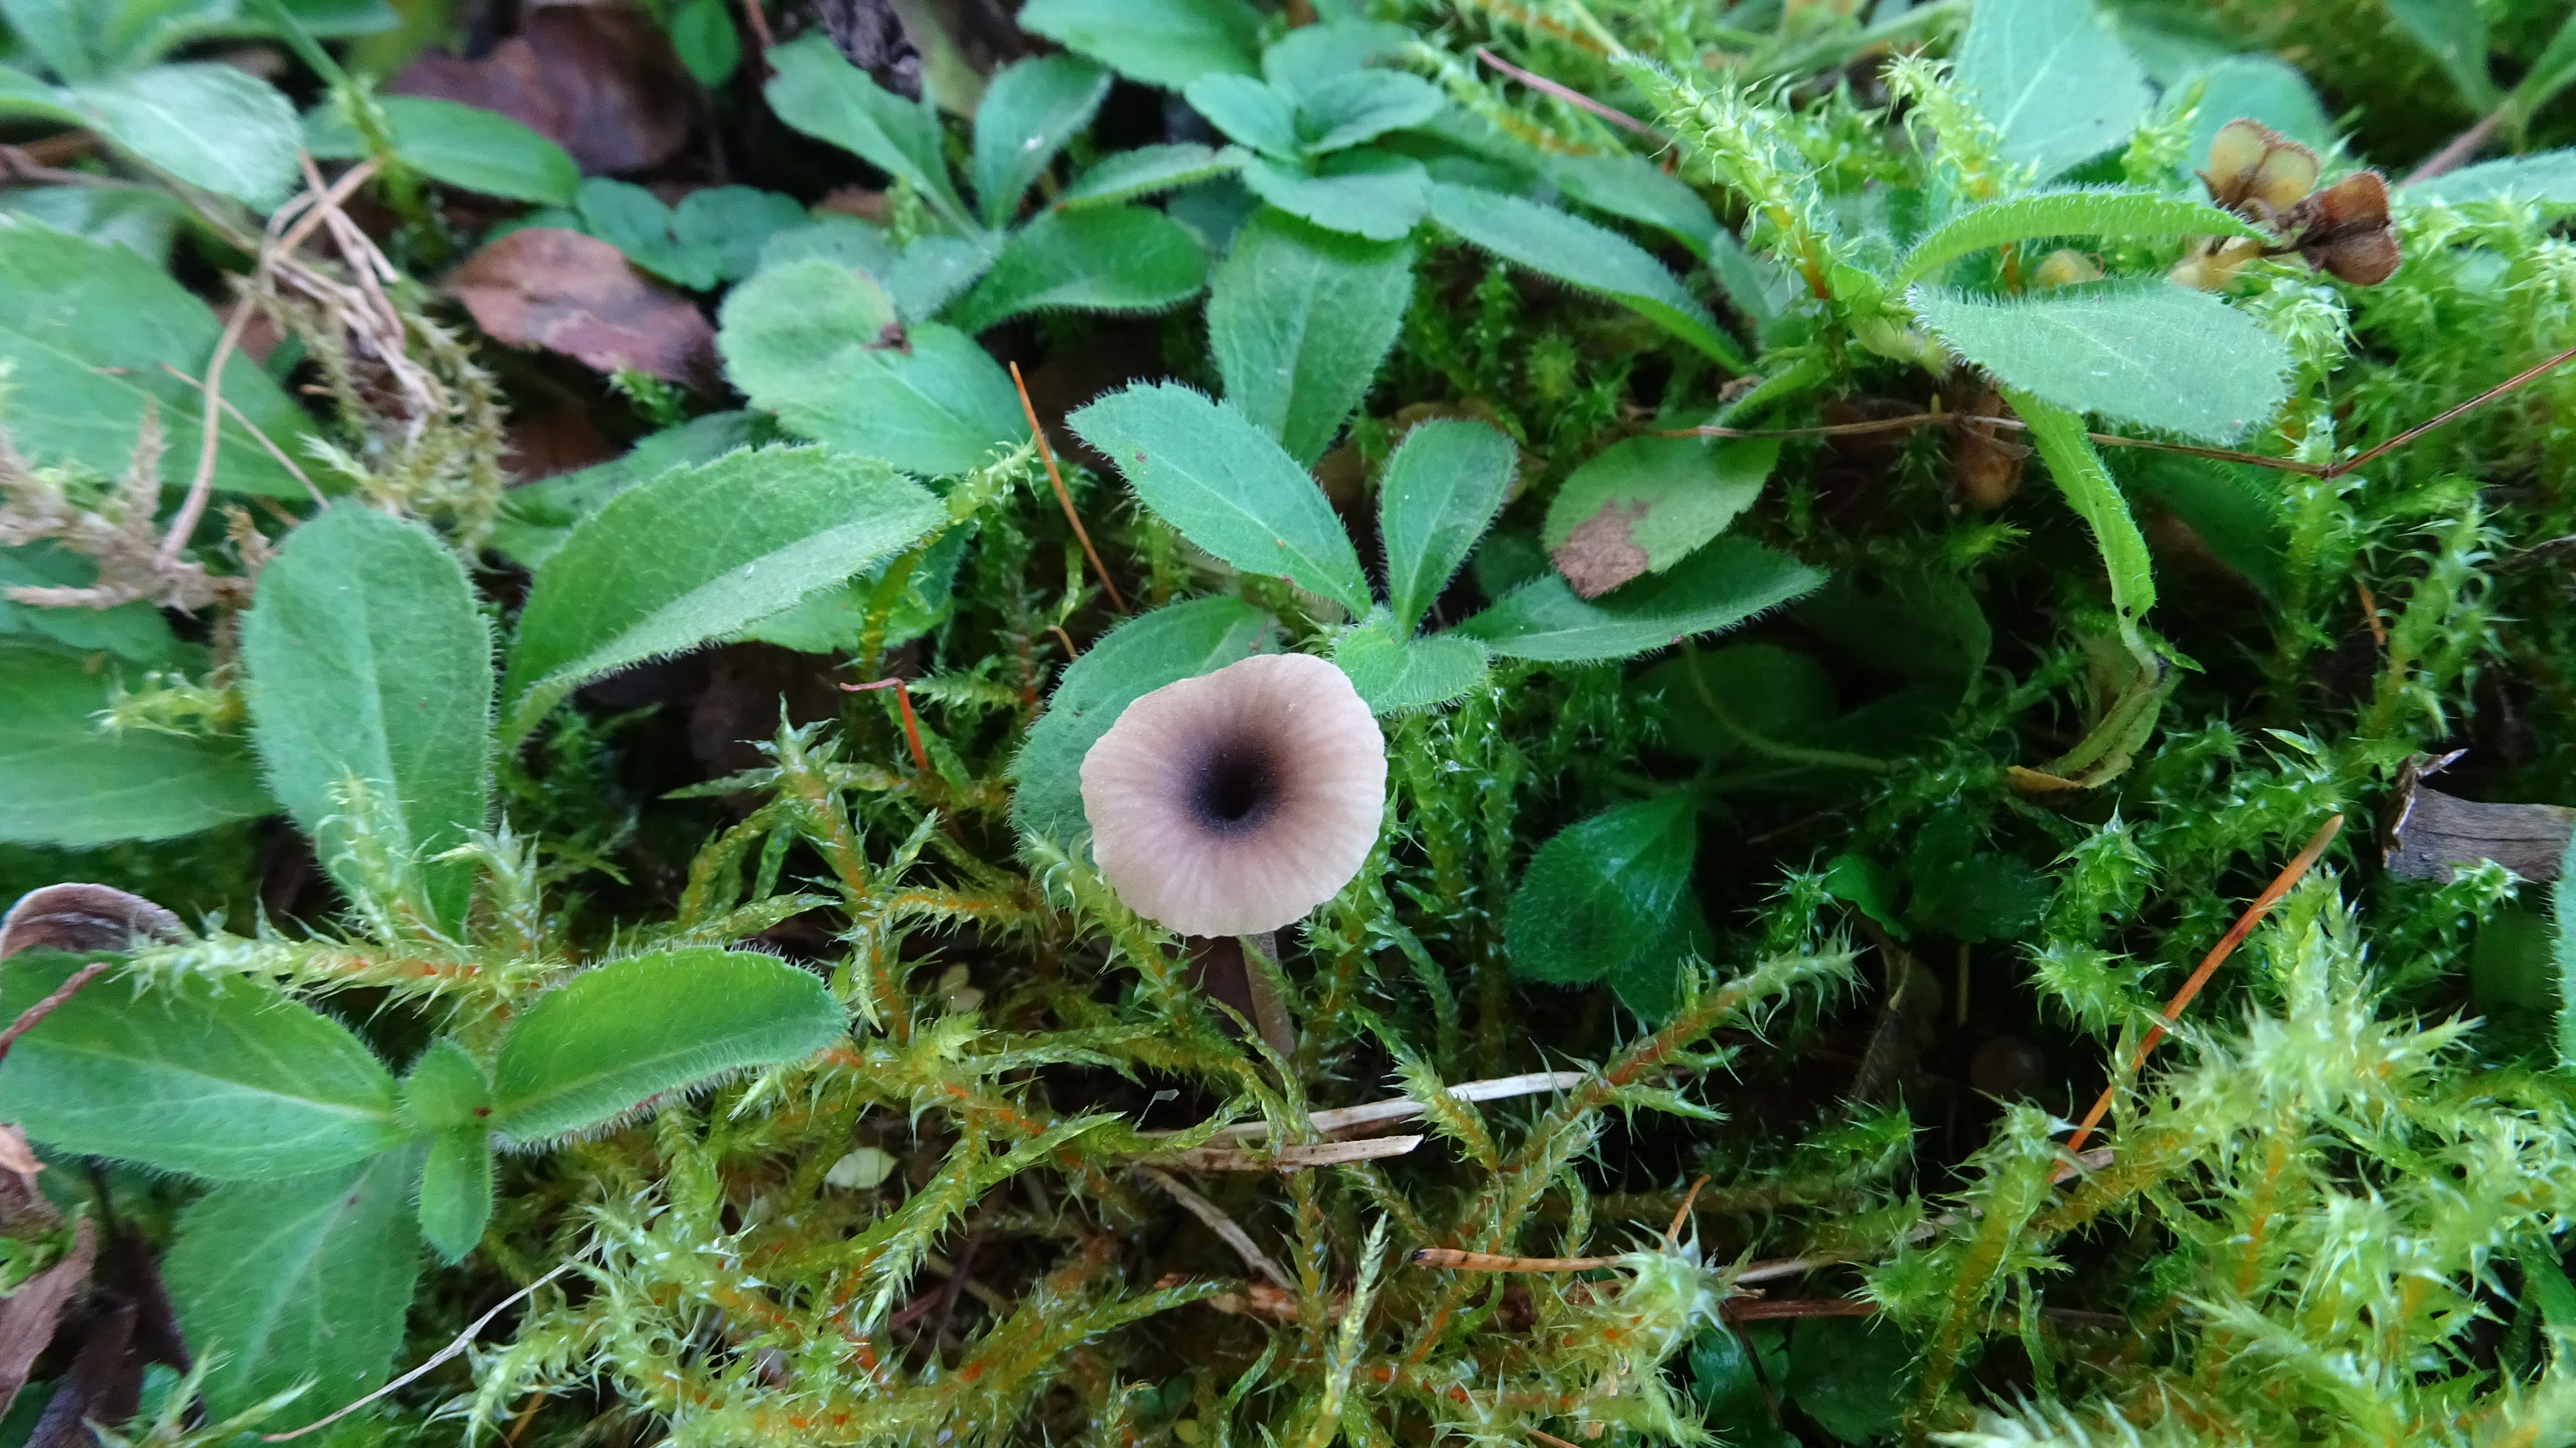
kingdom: Fungi
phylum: Basidiomycota
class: Agaricomycetes
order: Hymenochaetales
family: Rickenellaceae
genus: Rickenella
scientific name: Rickenella swartzii
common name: Collared mosscap
